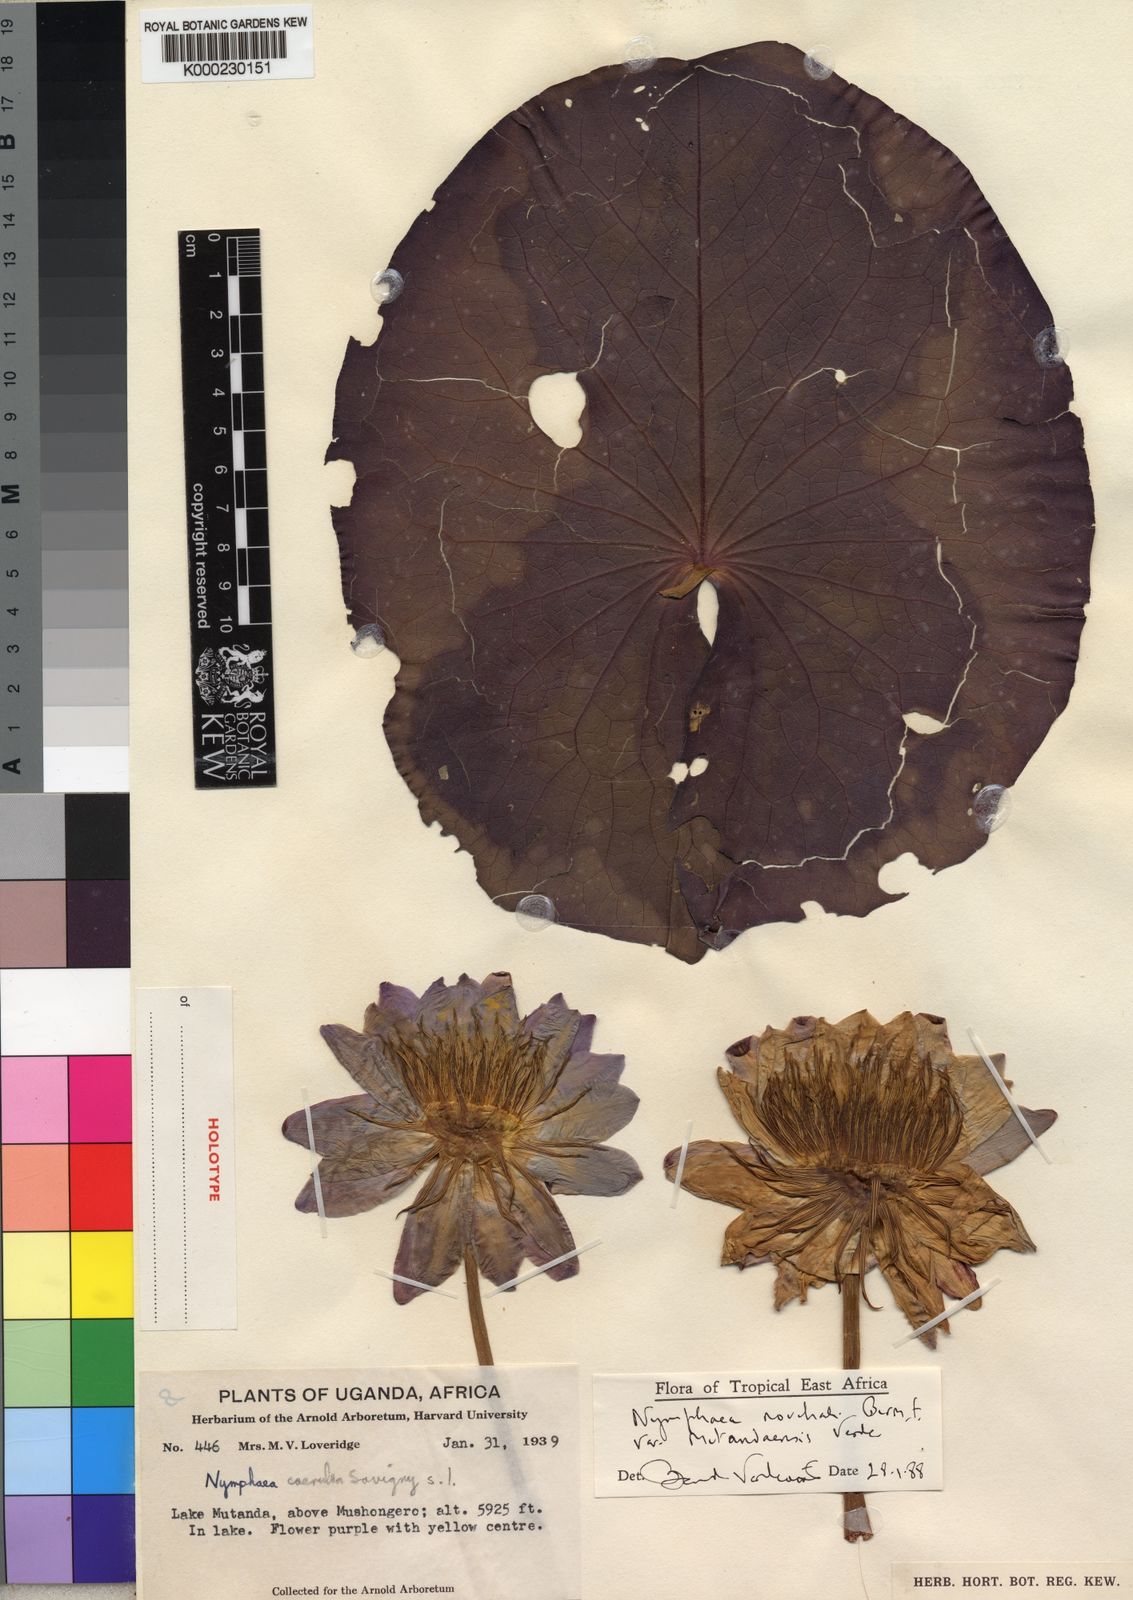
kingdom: Plantae
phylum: Tracheophyta
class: Magnoliopsida
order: Nymphaeales
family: Nymphaeaceae
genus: Nymphaea
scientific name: Nymphaea nouchali
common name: Blue lotus
